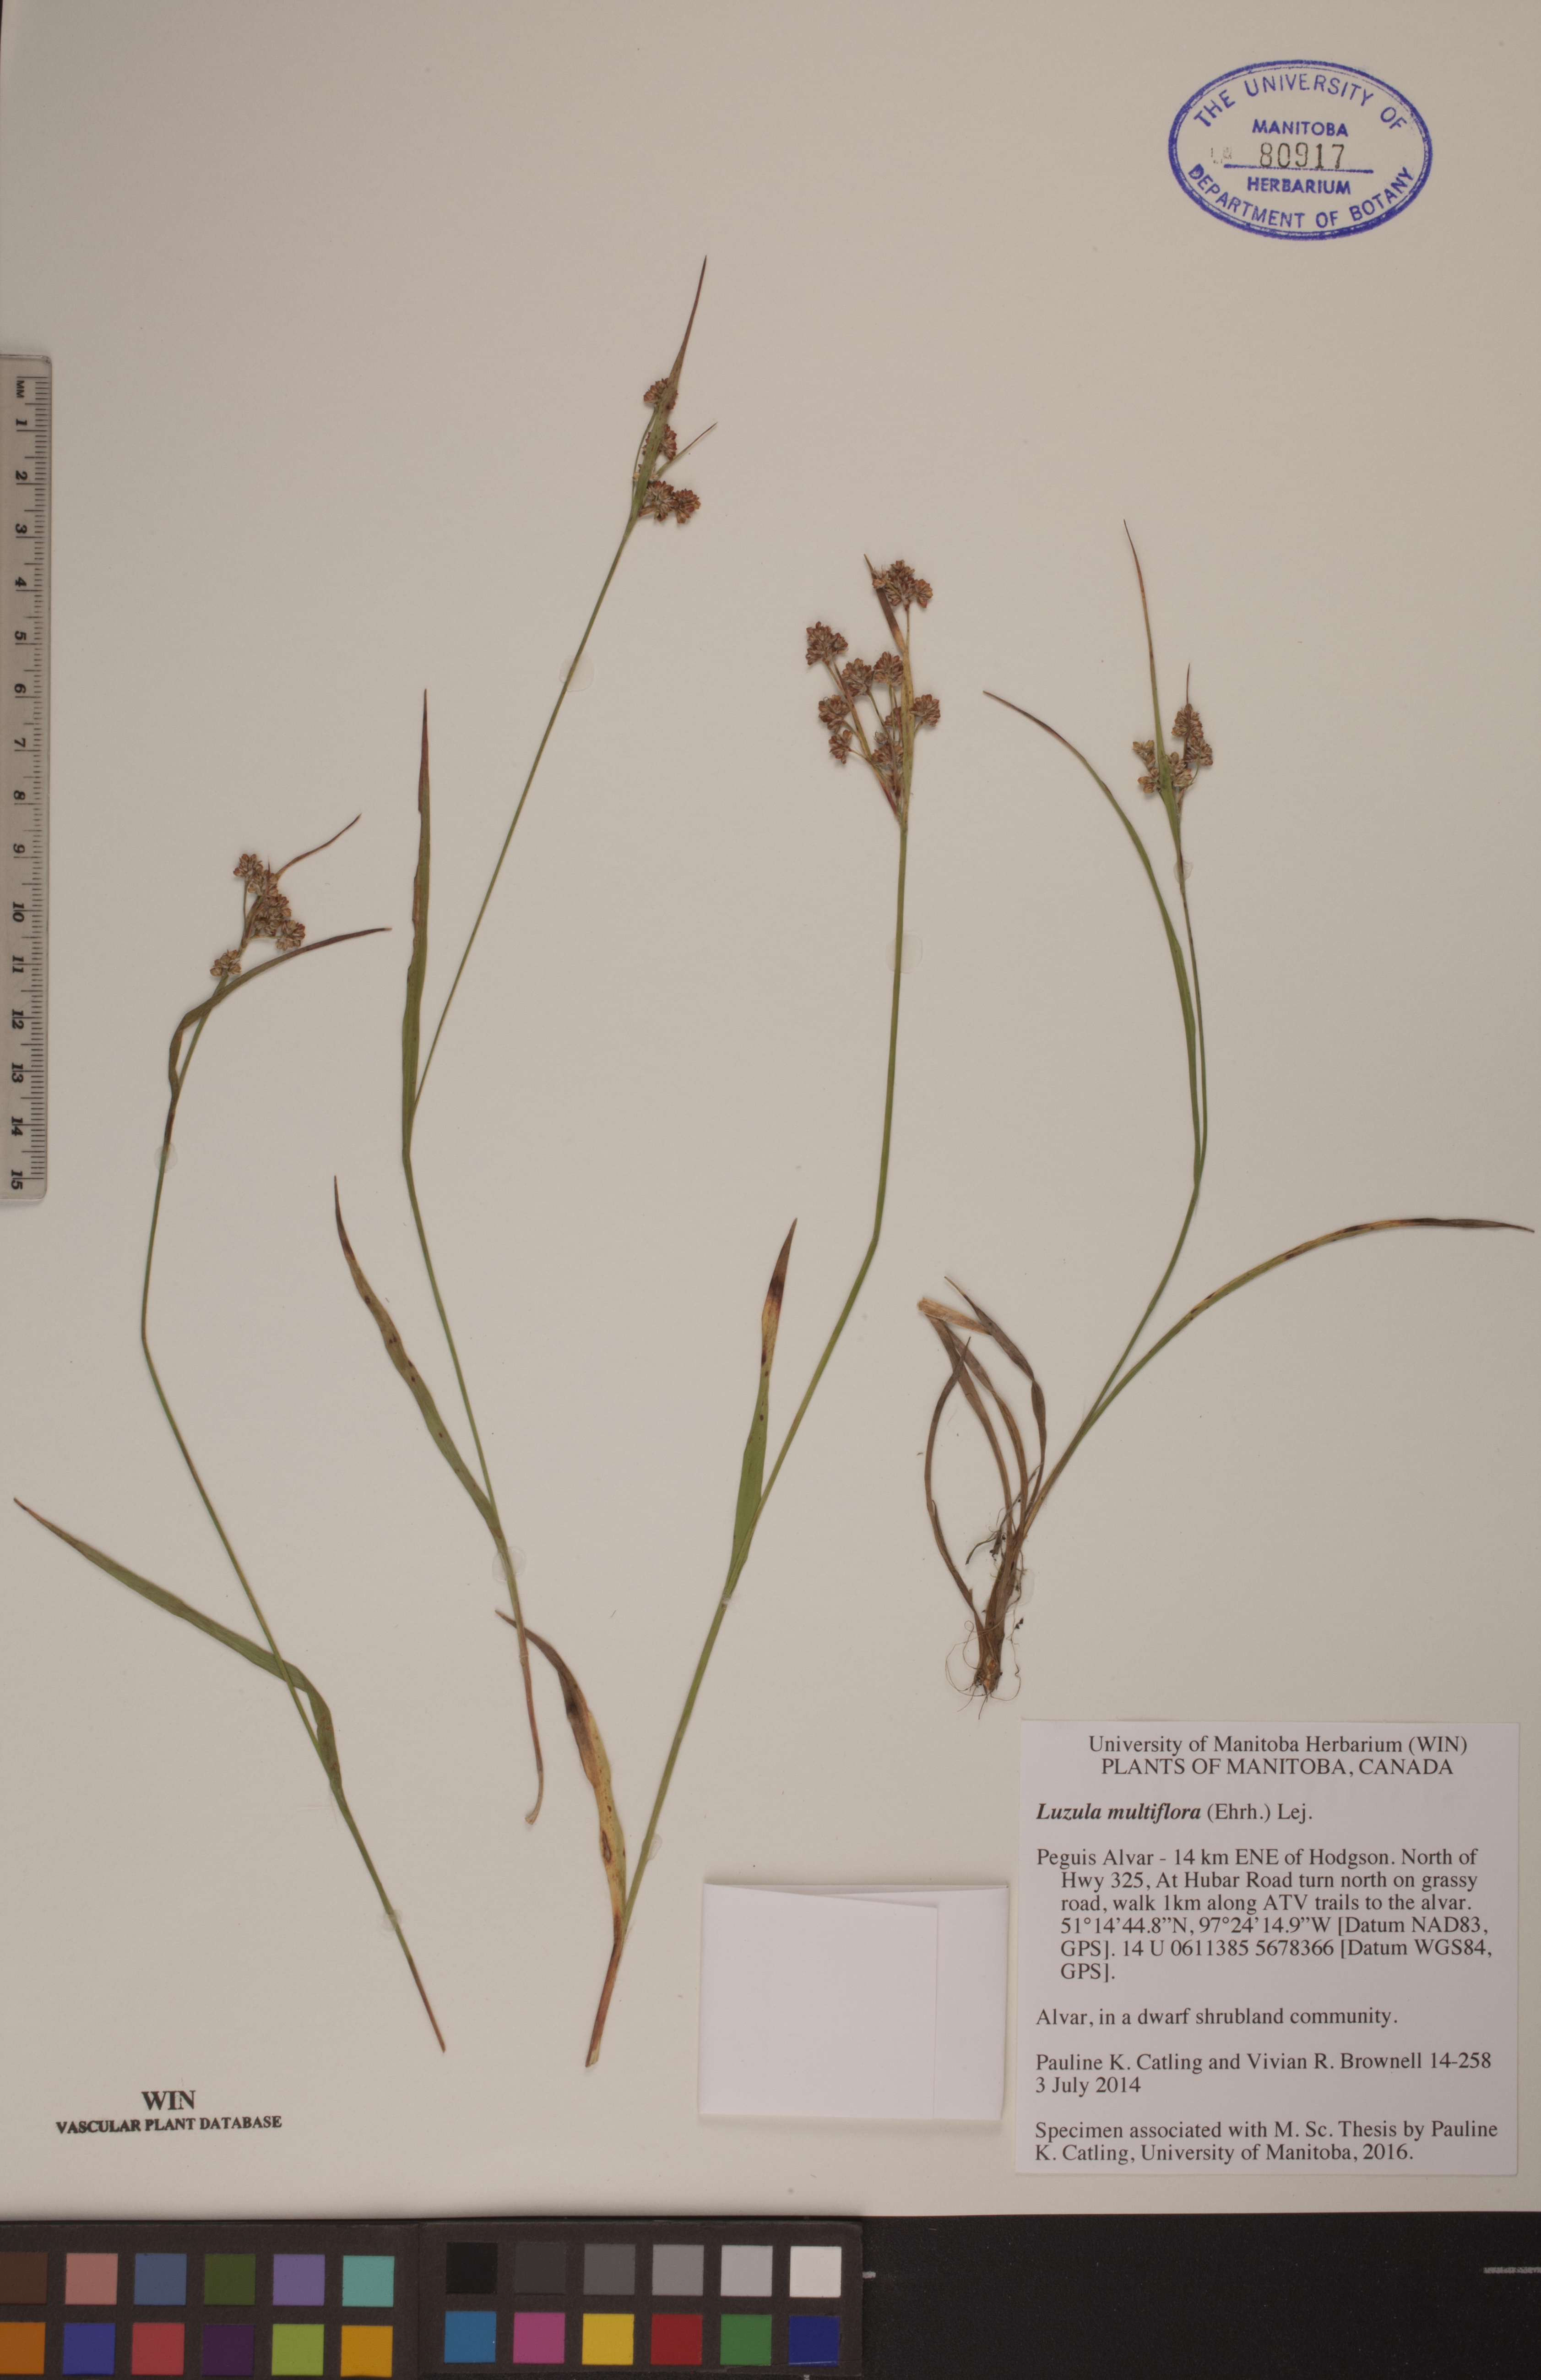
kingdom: Plantae
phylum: Tracheophyta
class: Liliopsida
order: Poales
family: Juncaceae
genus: Luzula
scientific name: Luzula multiflora
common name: Heath wood-rush
